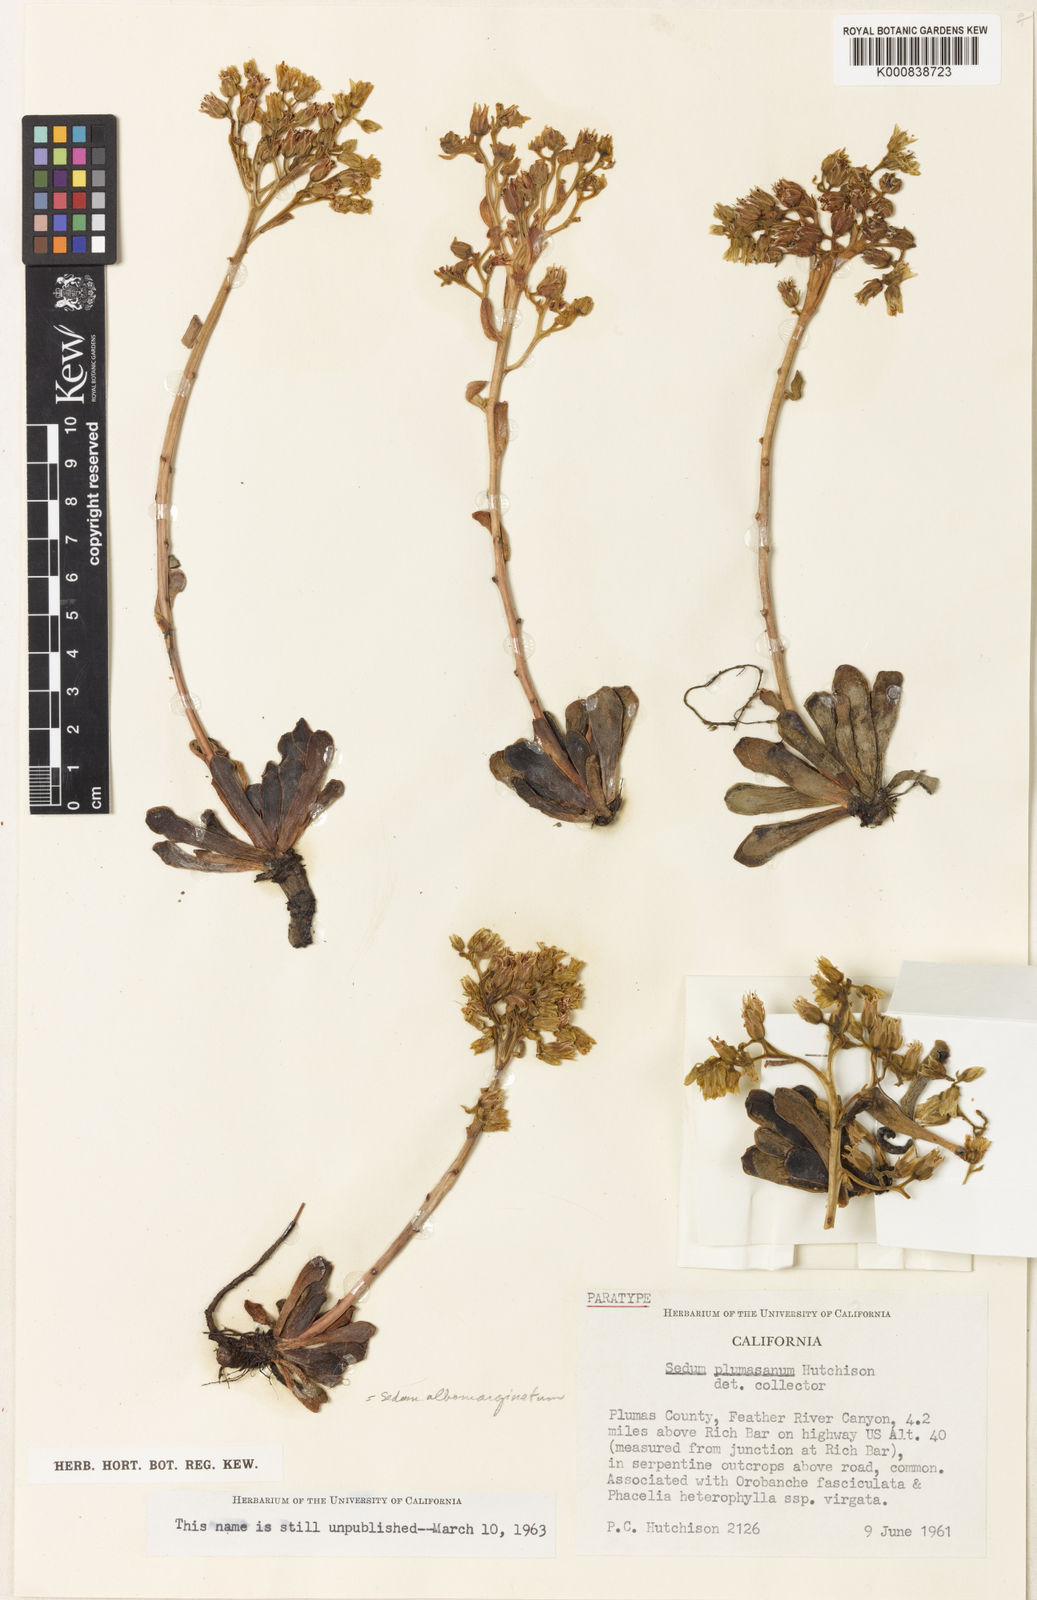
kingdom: Plantae
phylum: Tracheophyta
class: Magnoliopsida
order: Saxifragales
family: Crassulaceae
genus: Sedum
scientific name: Sedum
